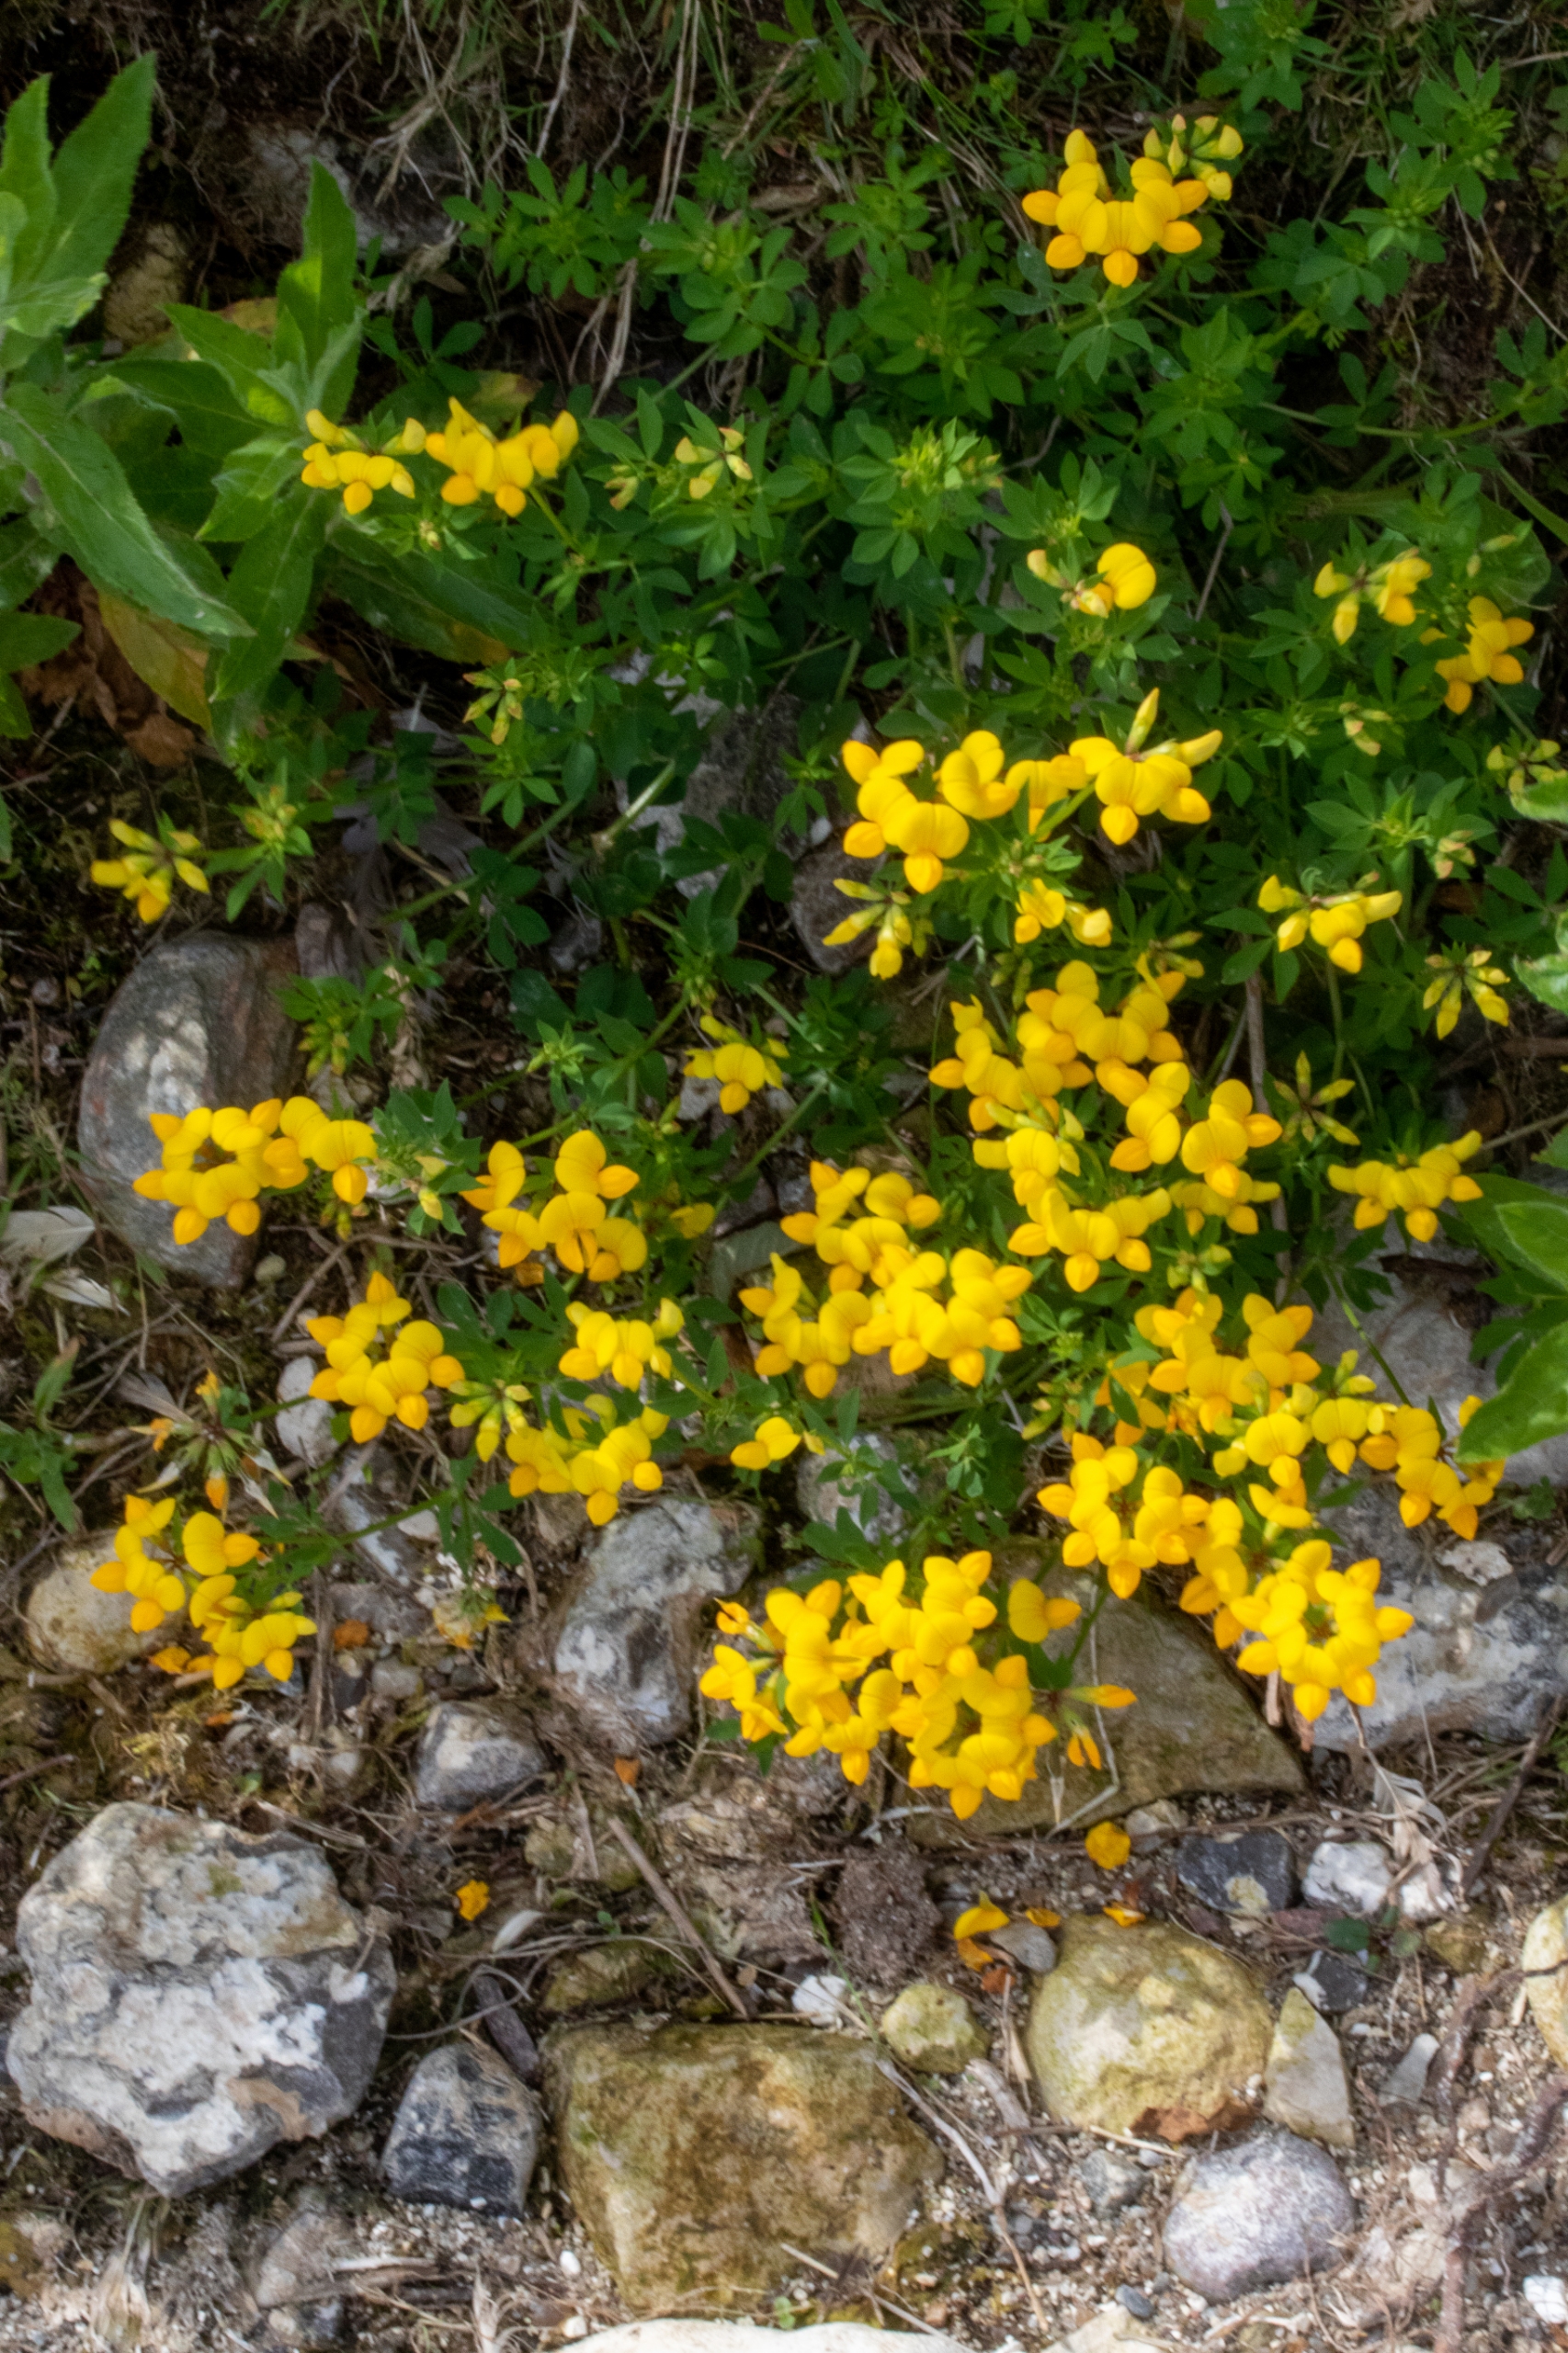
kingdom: Plantae
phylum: Tracheophyta
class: Magnoliopsida
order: Fabales
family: Fabaceae
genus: Lotus
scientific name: Lotus corniculatus
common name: Almindelig kællingetand
